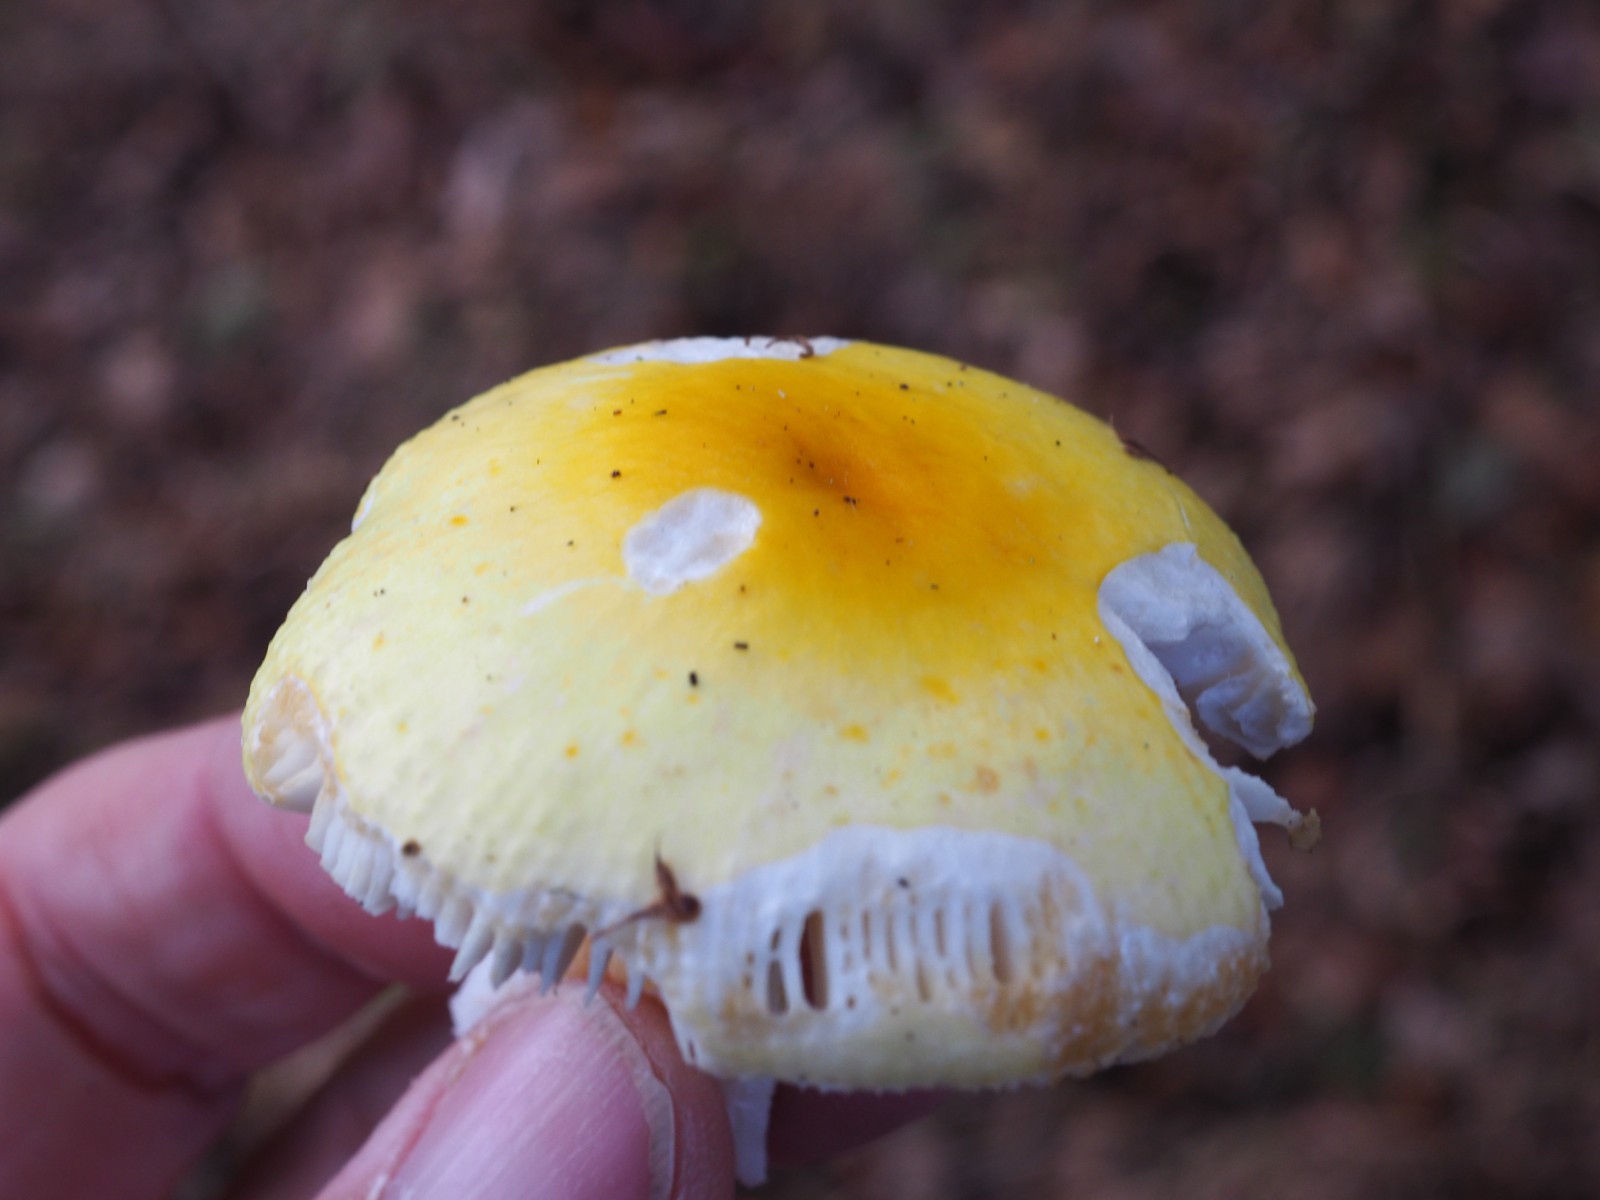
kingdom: Fungi
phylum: Basidiomycota
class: Agaricomycetes
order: Russulales
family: Russulaceae
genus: Russula
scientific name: Russula solaris
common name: sol-skørhat
